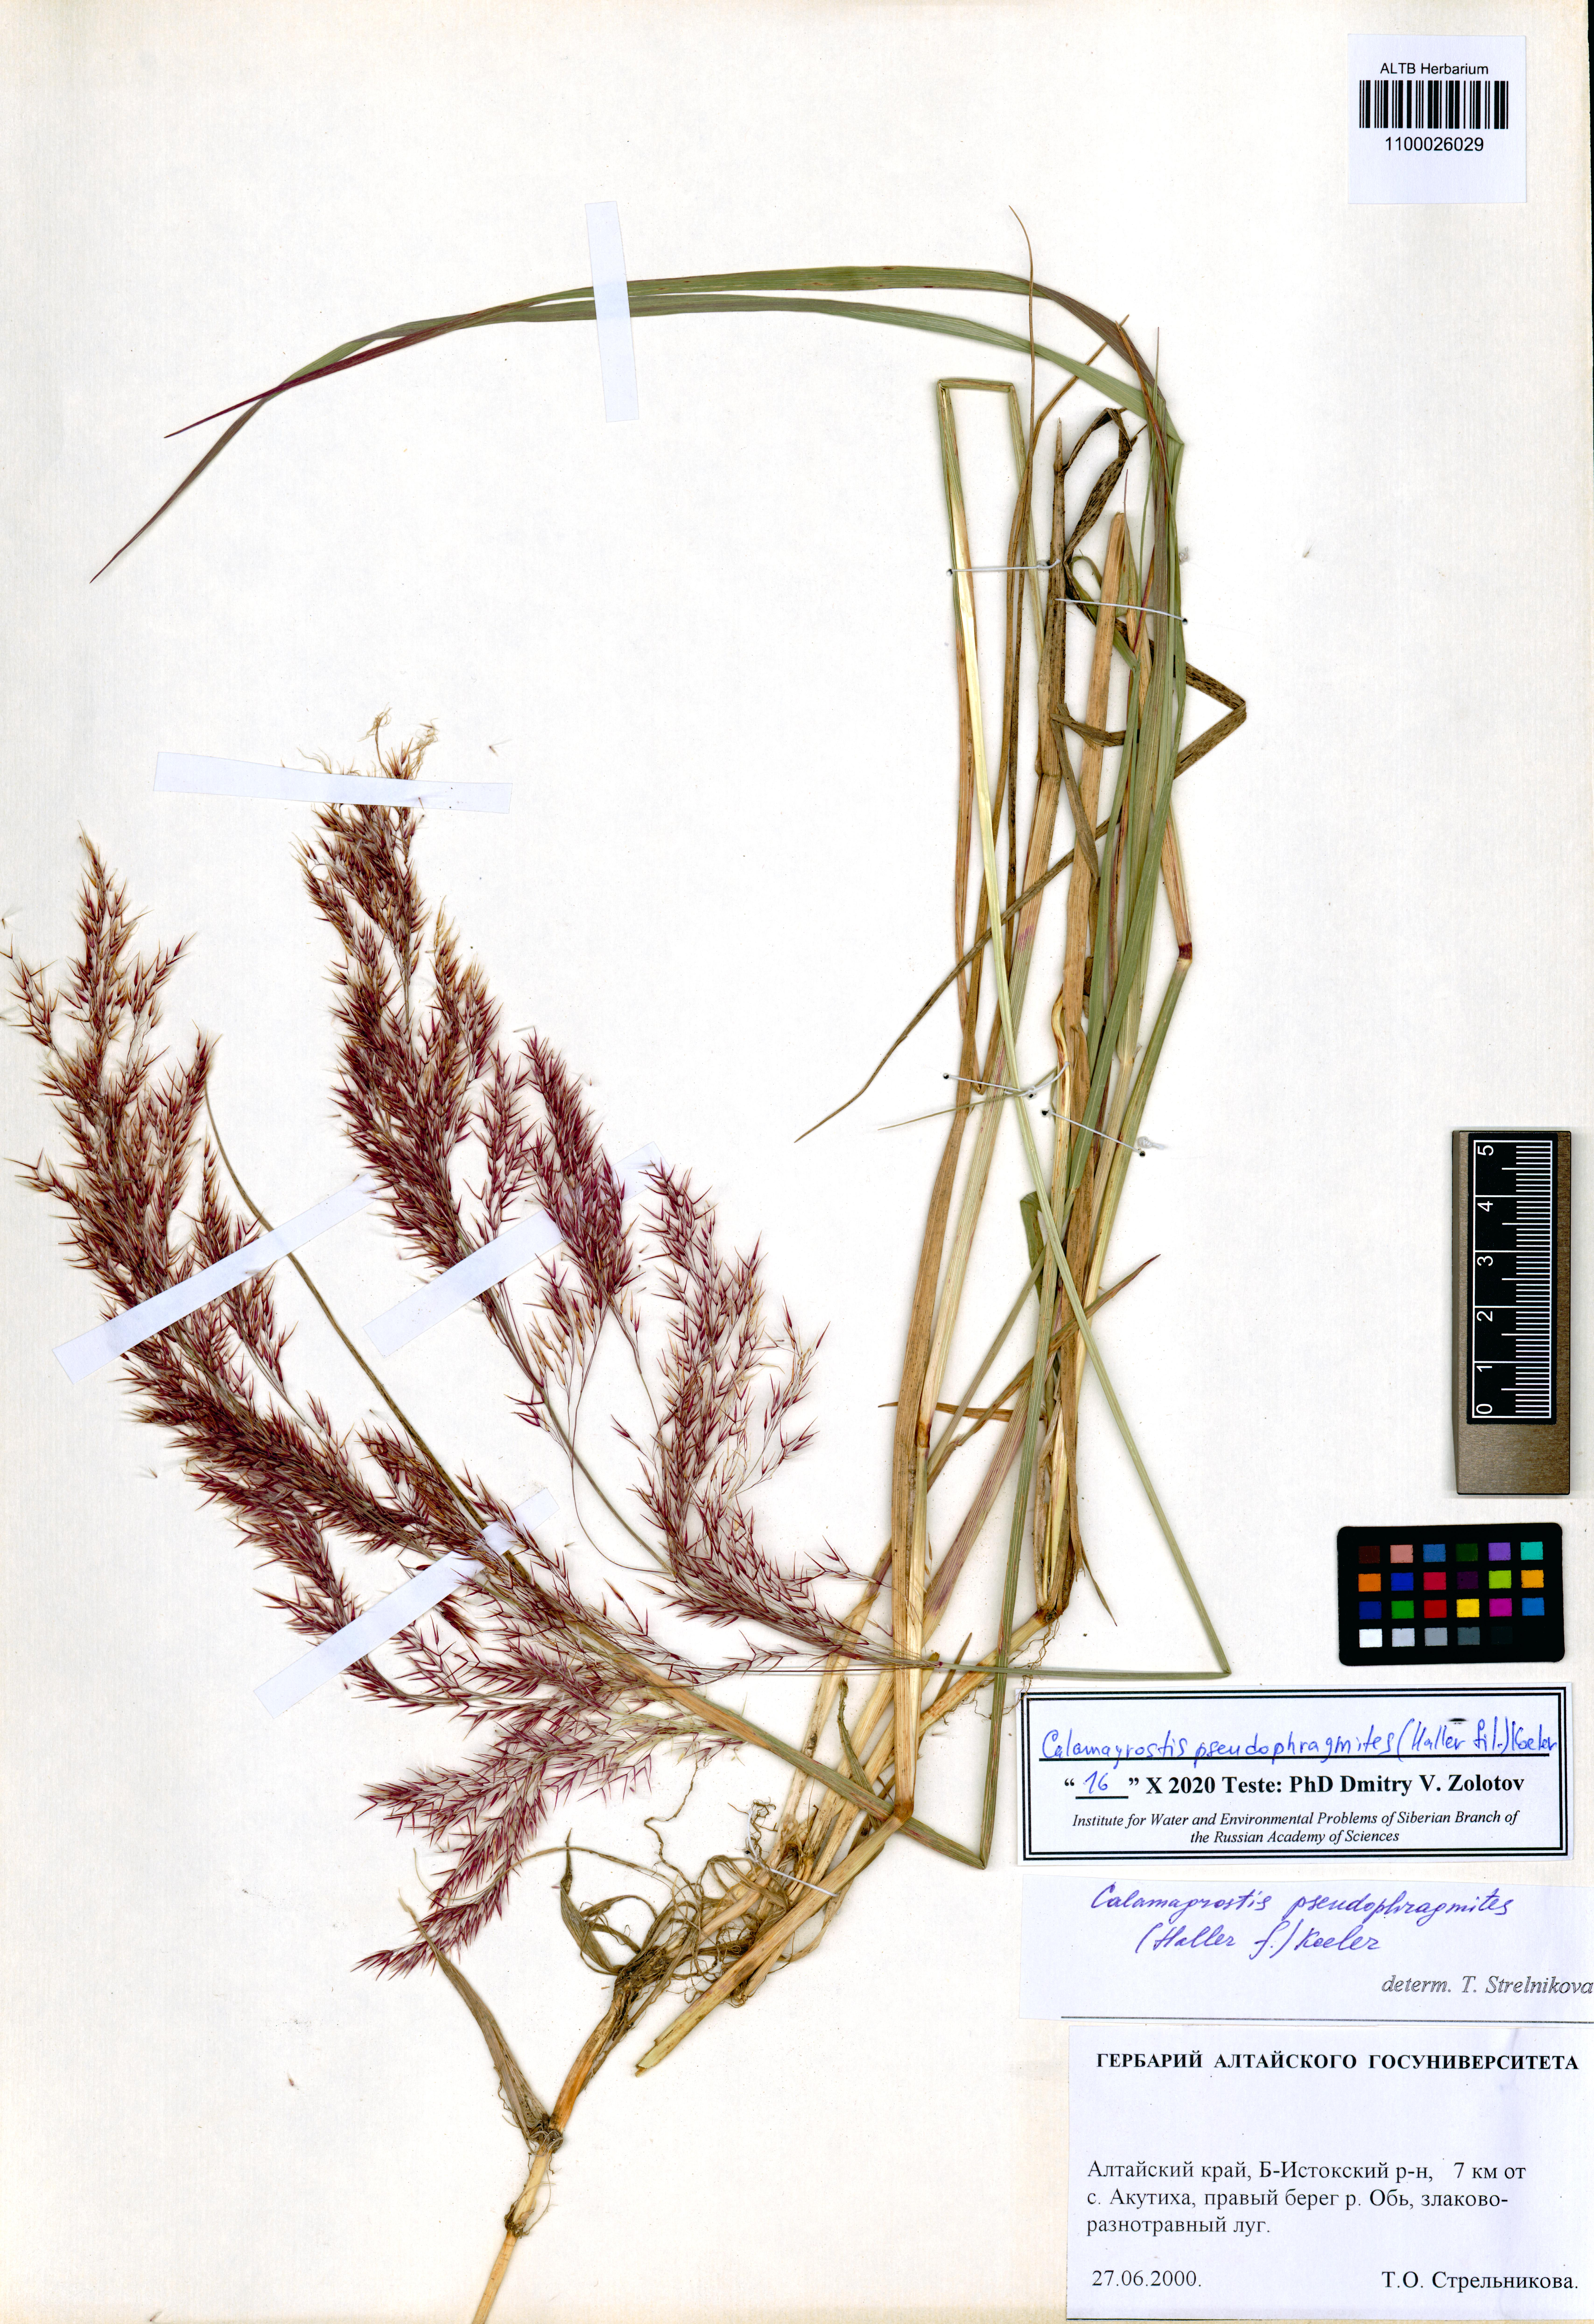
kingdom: Plantae
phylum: Tracheophyta
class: Liliopsida
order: Poales
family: Poaceae
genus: Calamagrostis
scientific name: Calamagrostis pseudophragmites
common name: Coastal small-reed
